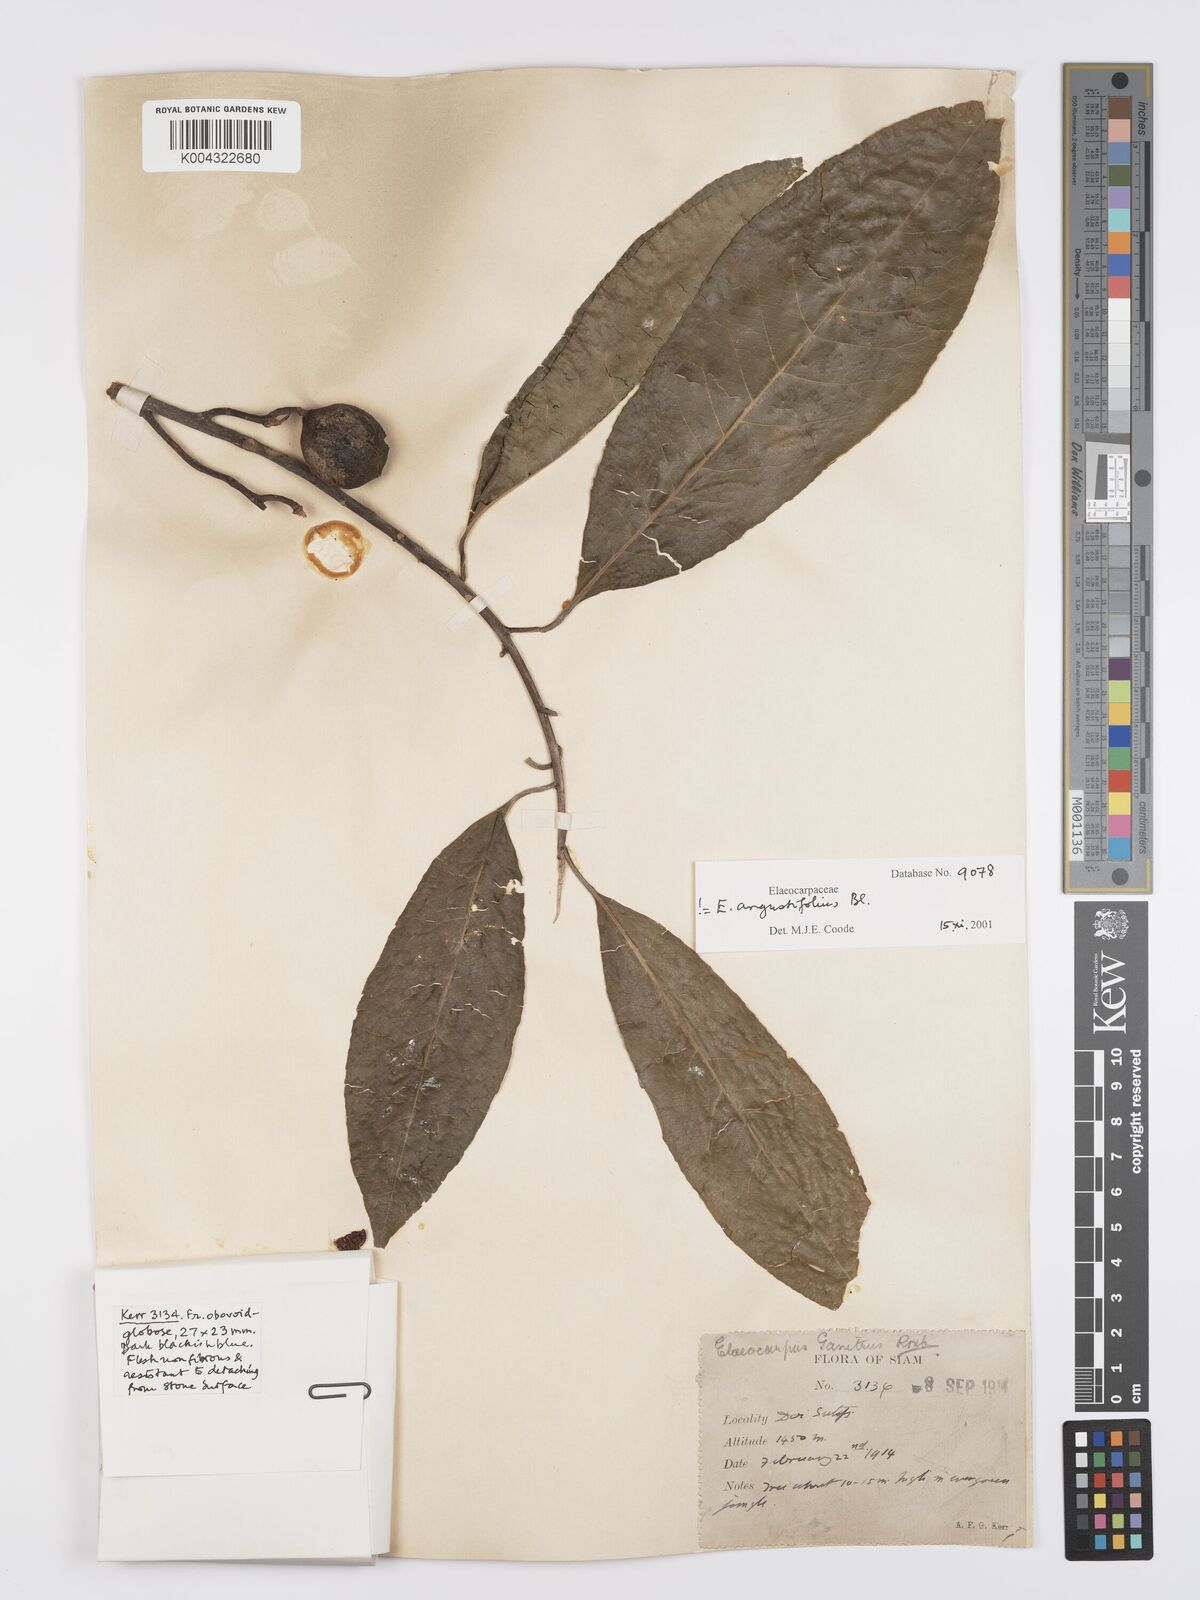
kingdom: Plantae
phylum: Tracheophyta
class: Magnoliopsida
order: Oxalidales
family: Elaeocarpaceae
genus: Elaeocarpus
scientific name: Elaeocarpus
